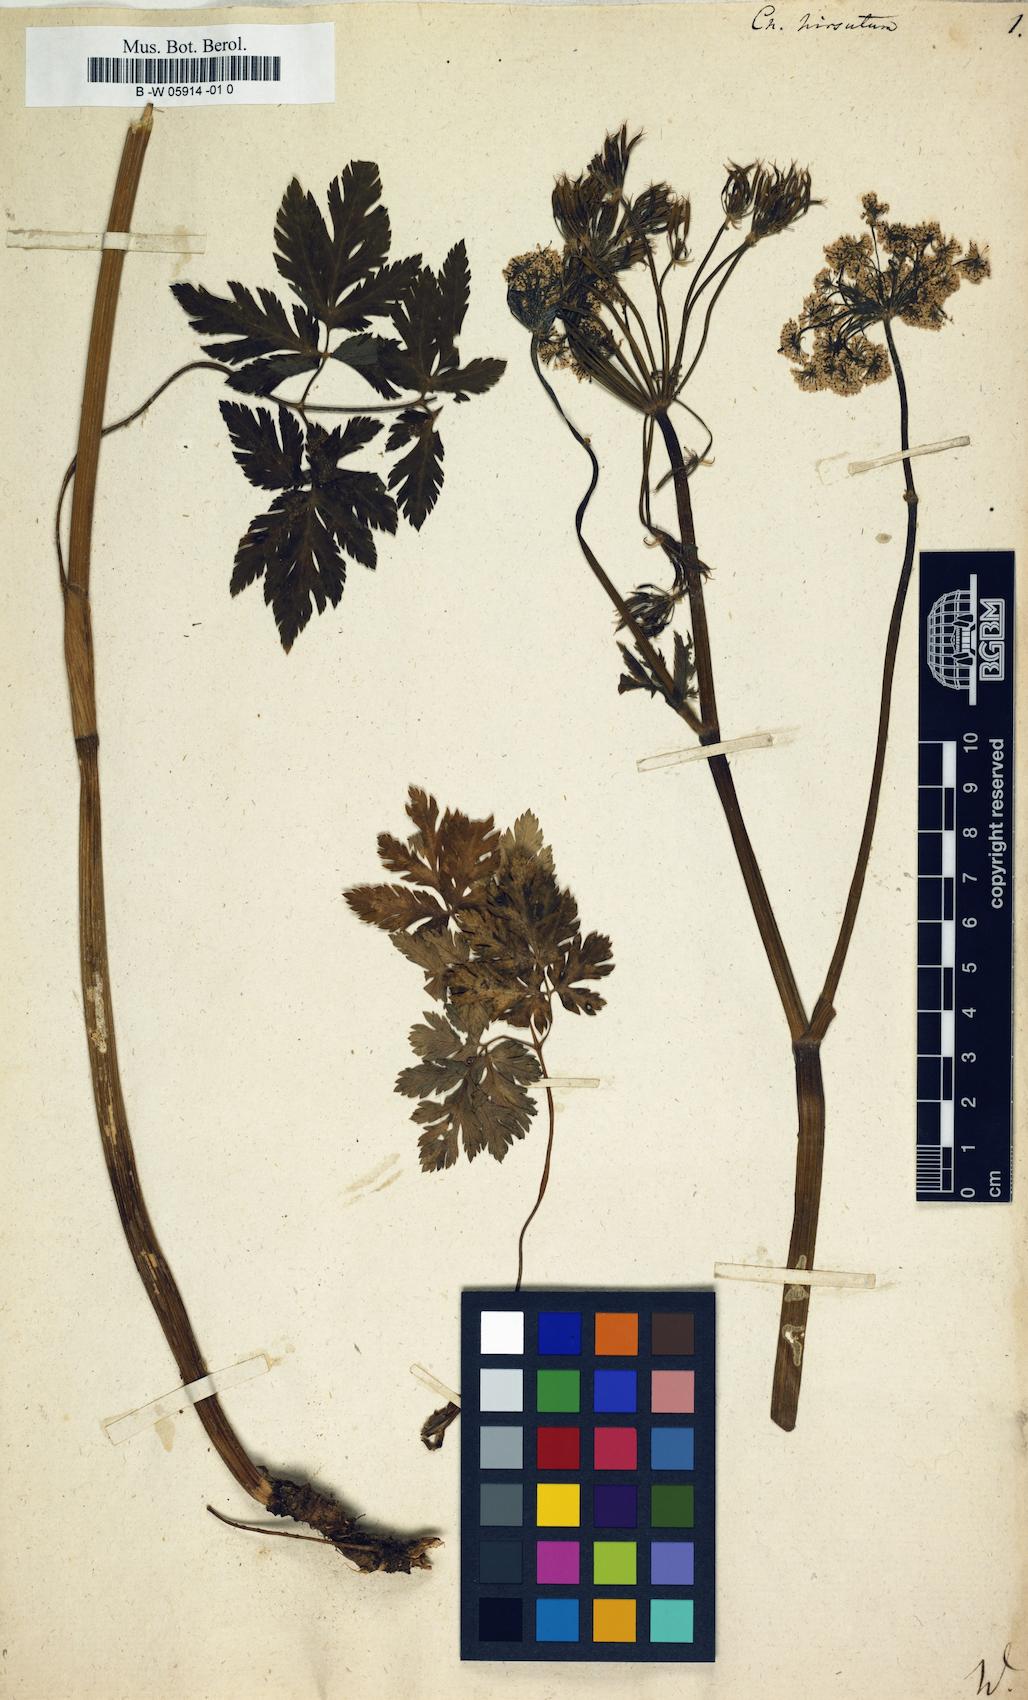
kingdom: Plantae
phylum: Tracheophyta
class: Magnoliopsida
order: Apiales
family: Apiaceae
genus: Chaerophyllum
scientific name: Chaerophyllum hirsutum
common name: Hairy chervil
